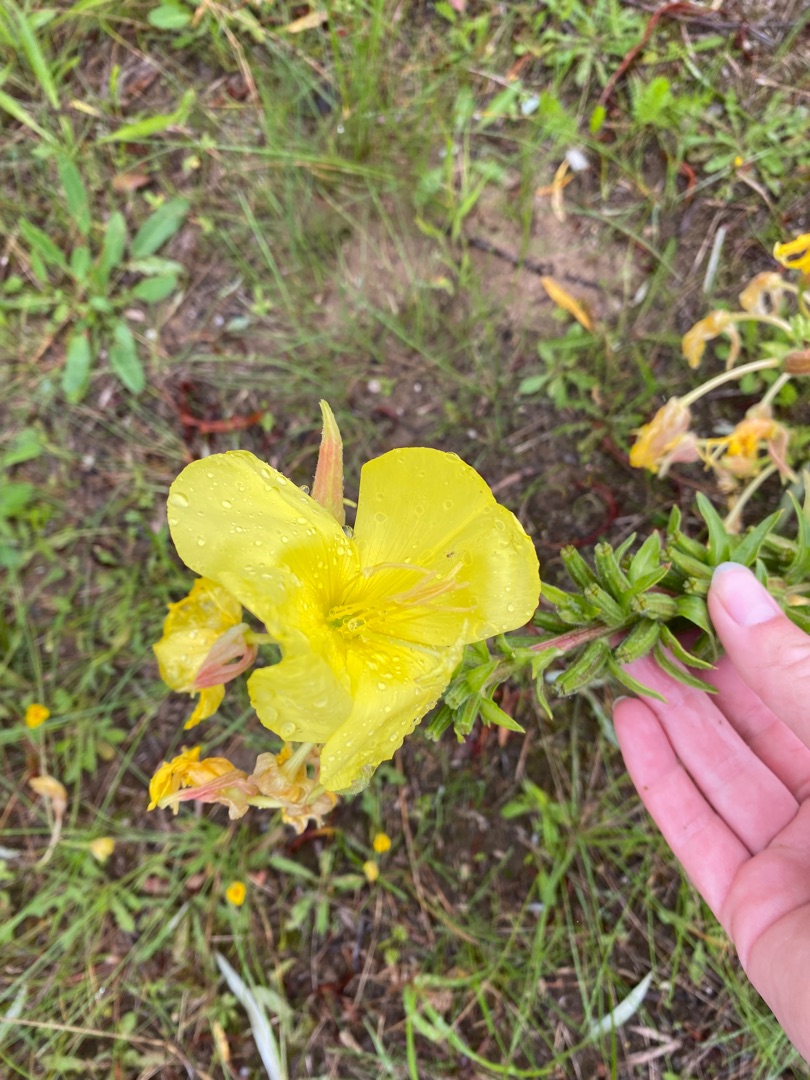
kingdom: Plantae
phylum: Tracheophyta
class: Magnoliopsida
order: Myrtales
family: Onagraceae
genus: Oenothera
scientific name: Oenothera fallax
